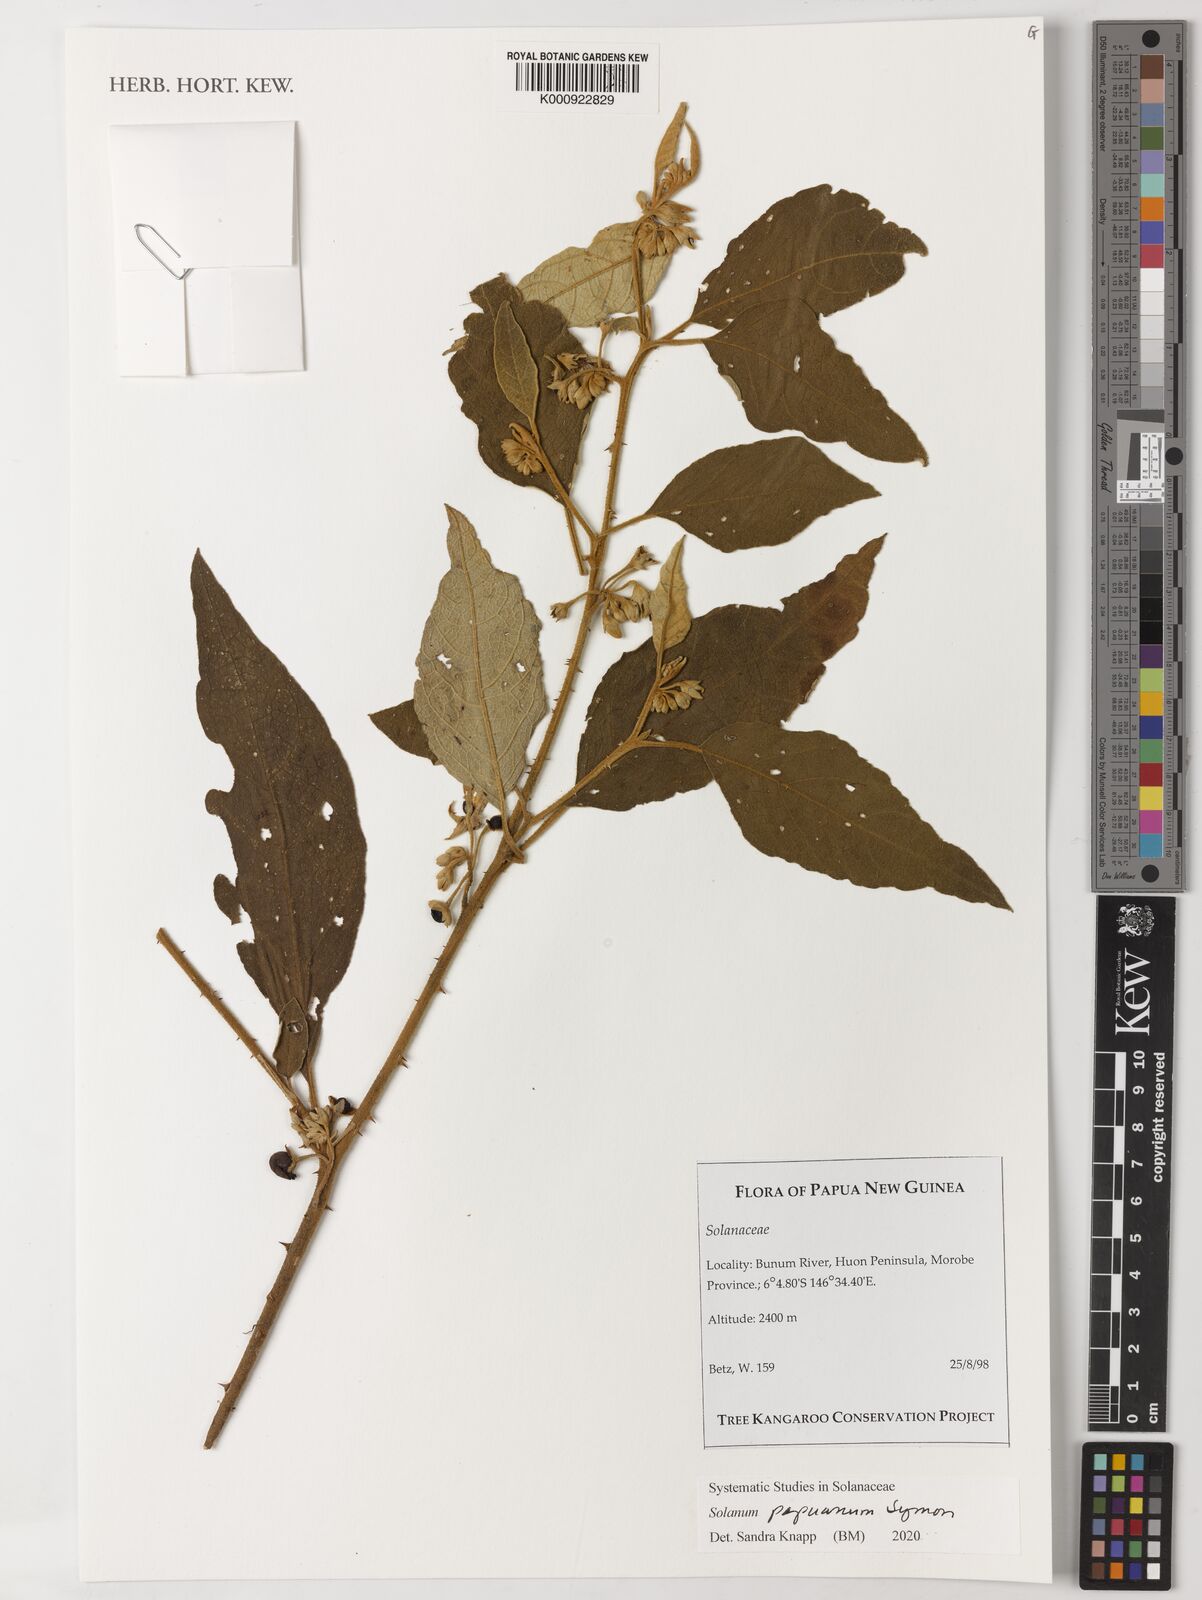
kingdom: Plantae
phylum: Tracheophyta
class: Magnoliopsida
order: Solanales
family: Solanaceae
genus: Solanum
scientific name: Solanum papuanum
